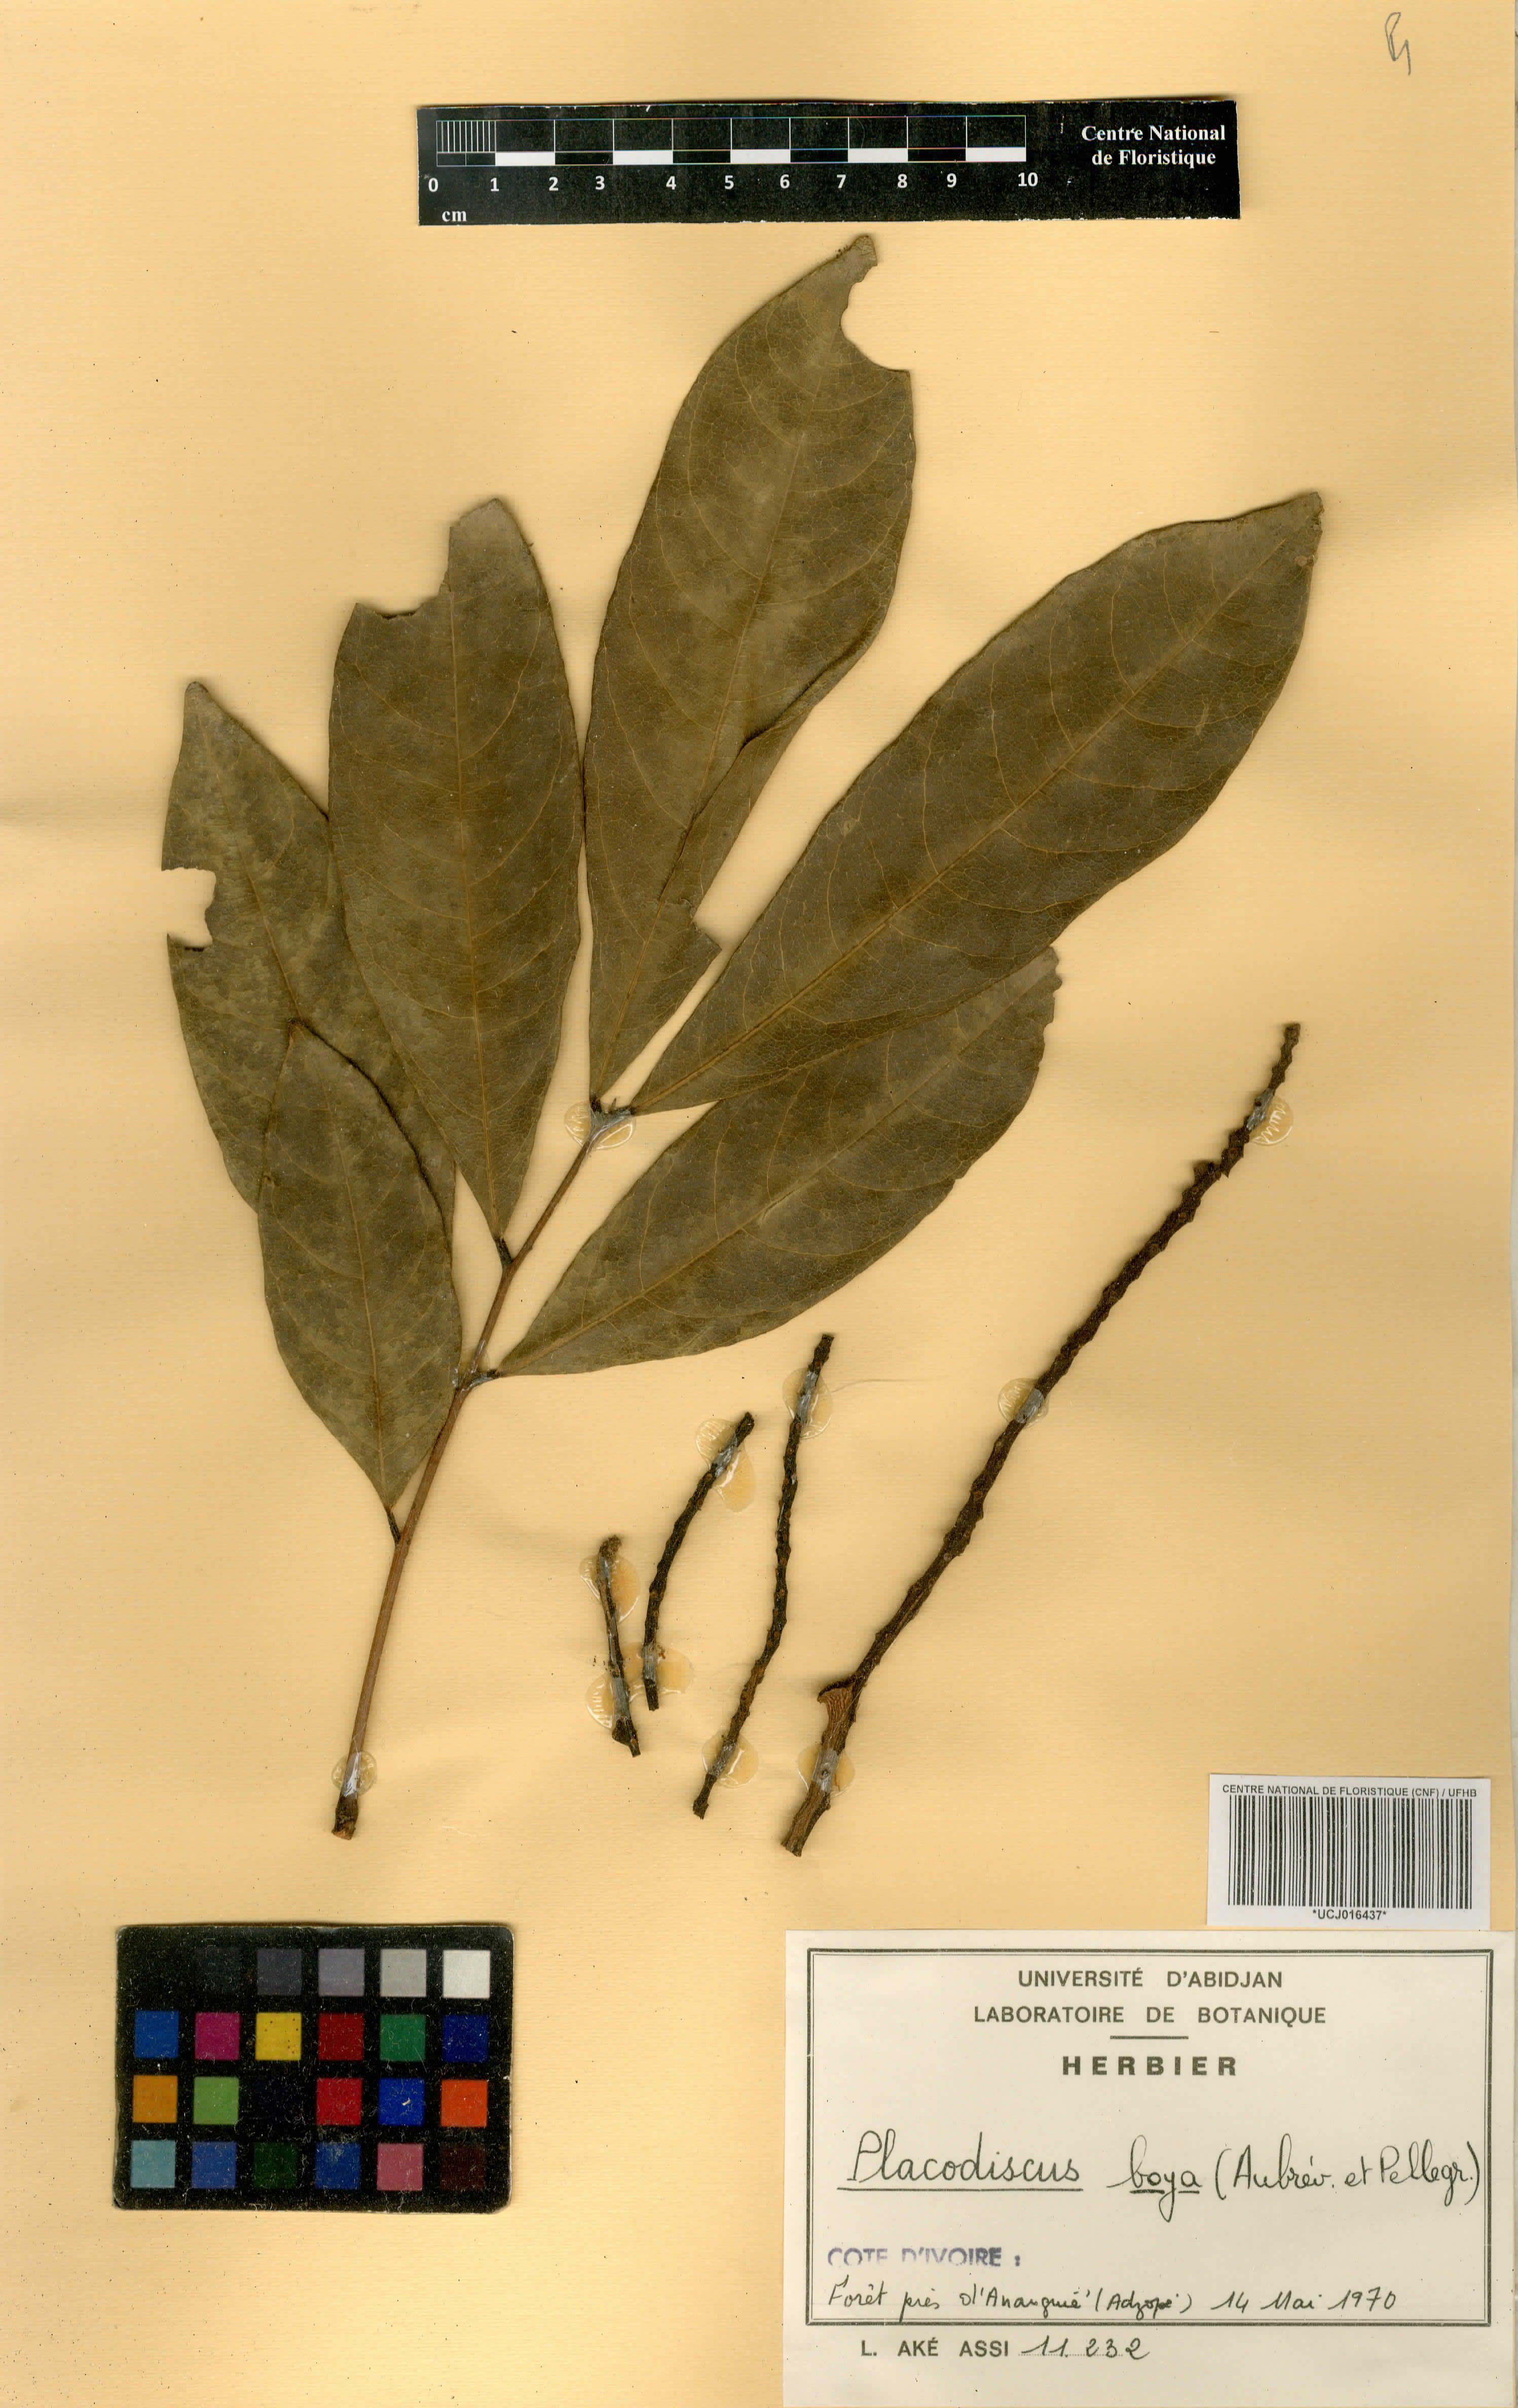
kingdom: Plantae
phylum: Tracheophyta
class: Magnoliopsida
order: Sapindales
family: Sapindaceae
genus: Placodiscus
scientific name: Placodiscus boya
